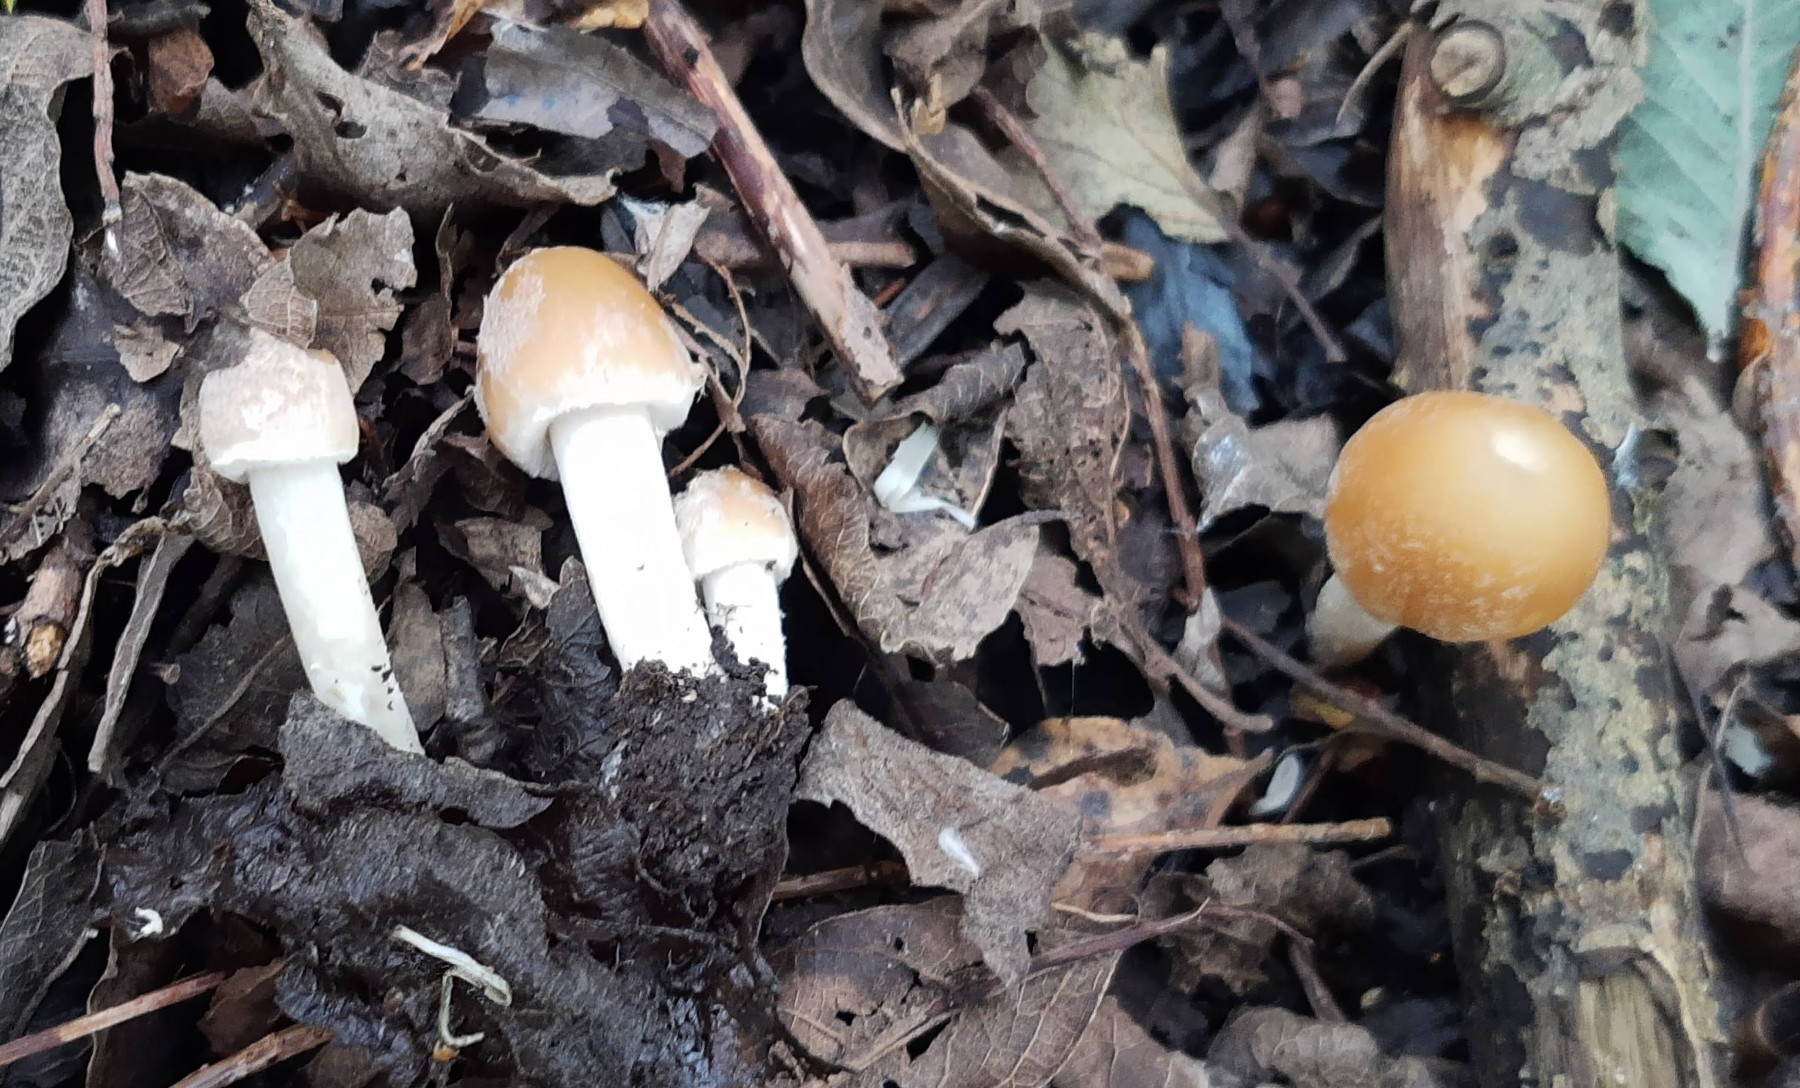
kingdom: Fungi
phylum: Basidiomycota
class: Agaricomycetes
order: Agaricales
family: Psathyrellaceae
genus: Candolleomyces
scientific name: Candolleomyces candolleanus
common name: Candolles mørkhat
